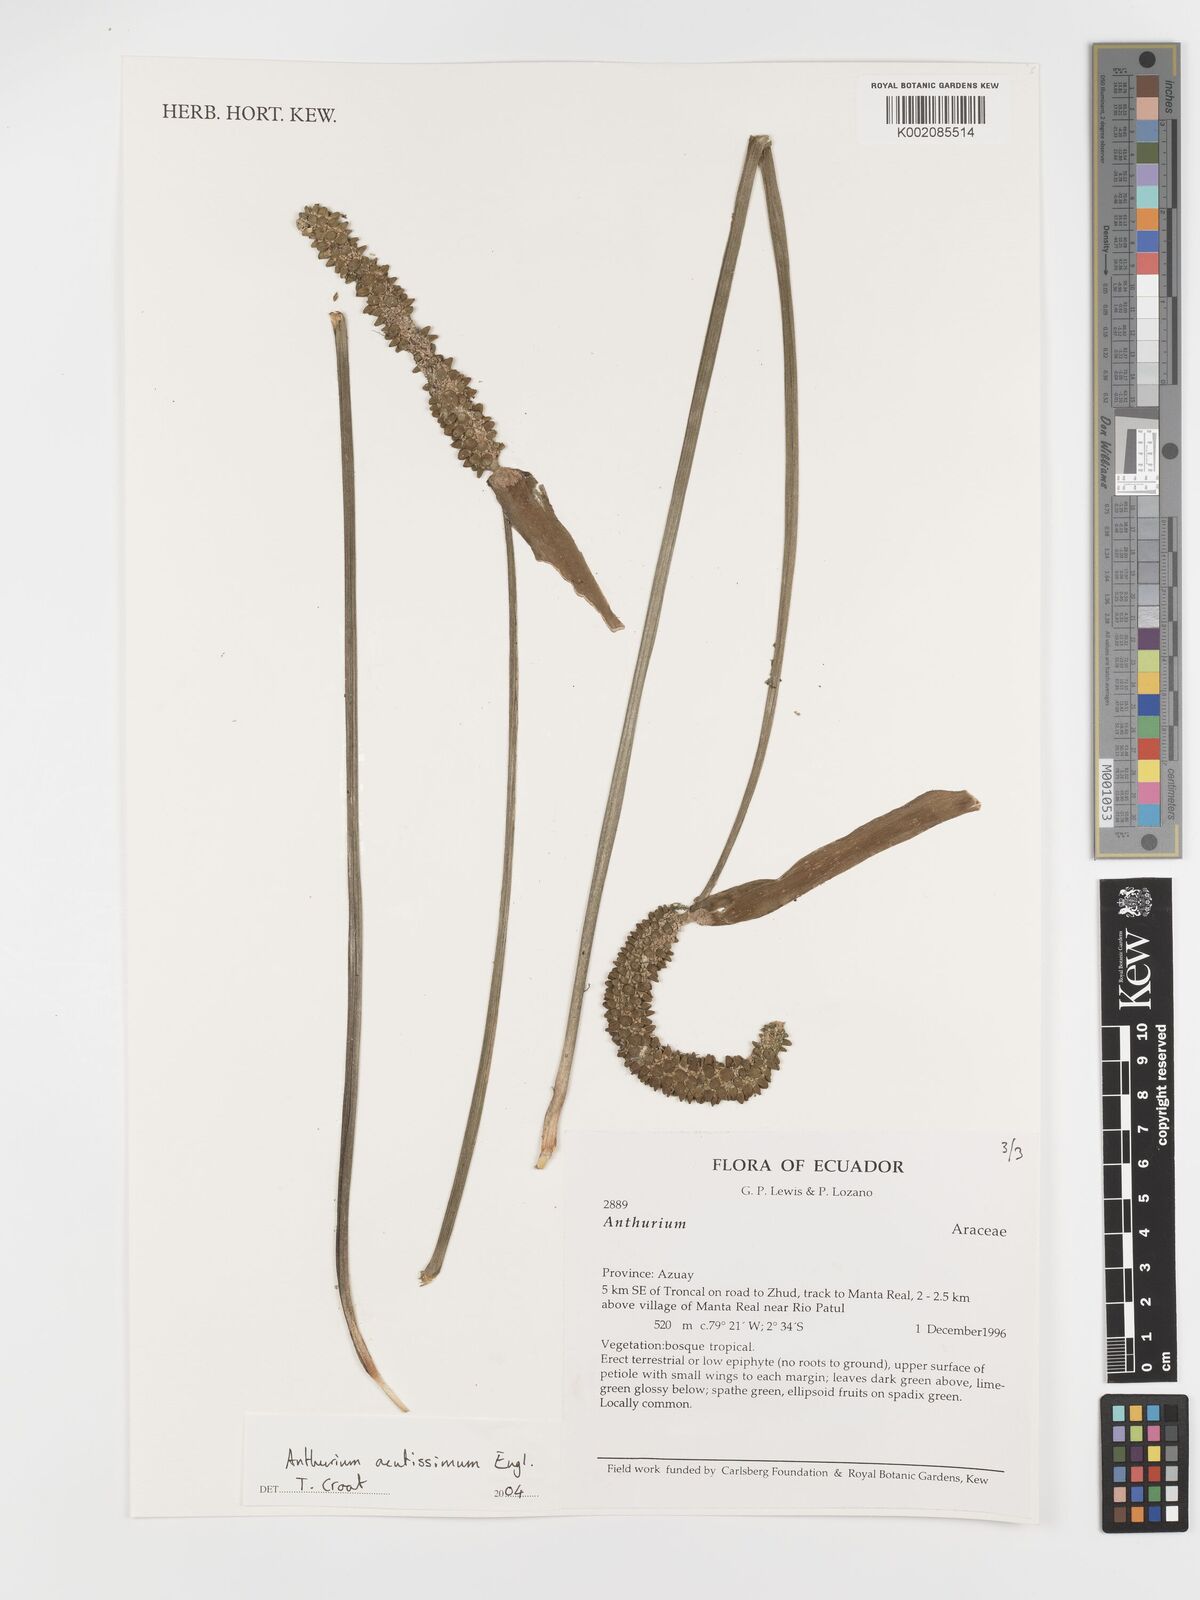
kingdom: Plantae
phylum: Tracheophyta
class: Liliopsida
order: Alismatales
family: Araceae
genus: Anthurium
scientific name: Anthurium acutissimum
